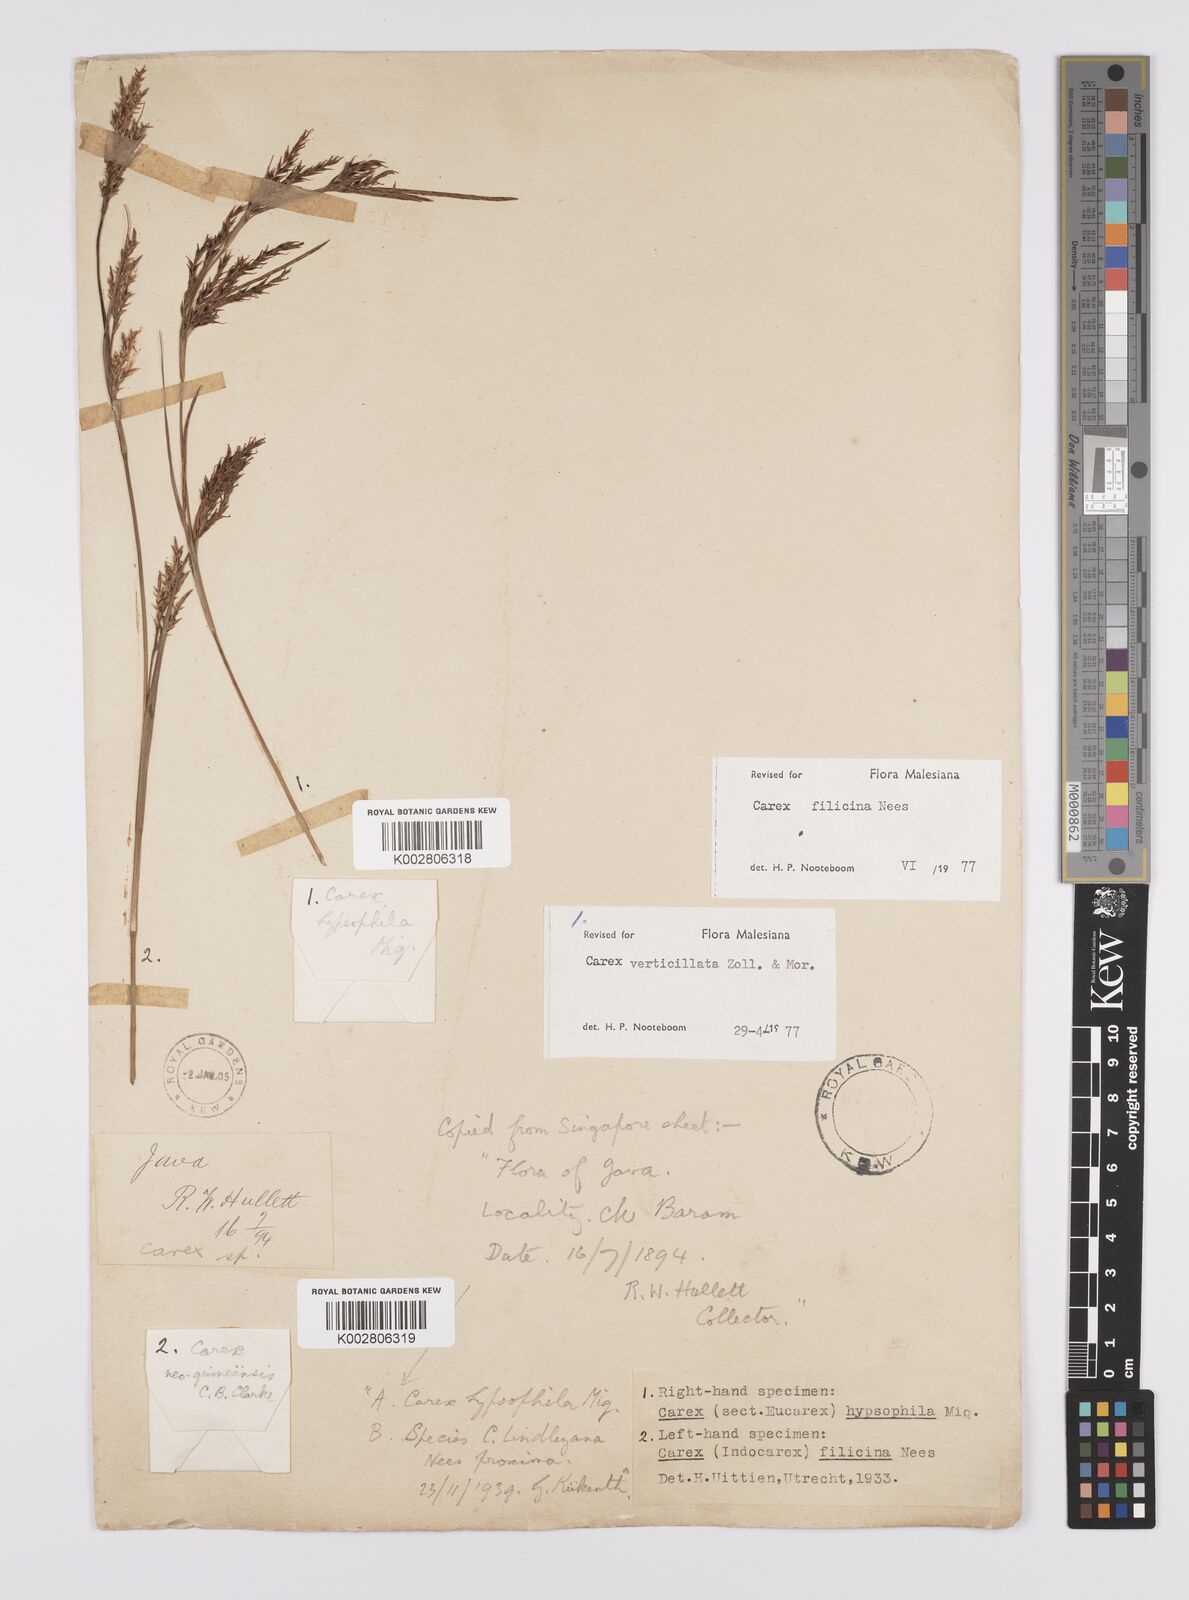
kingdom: Plantae
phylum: Tracheophyta
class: Liliopsida
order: Poales
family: Cyperaceae
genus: Carex
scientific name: Carex verticillata
